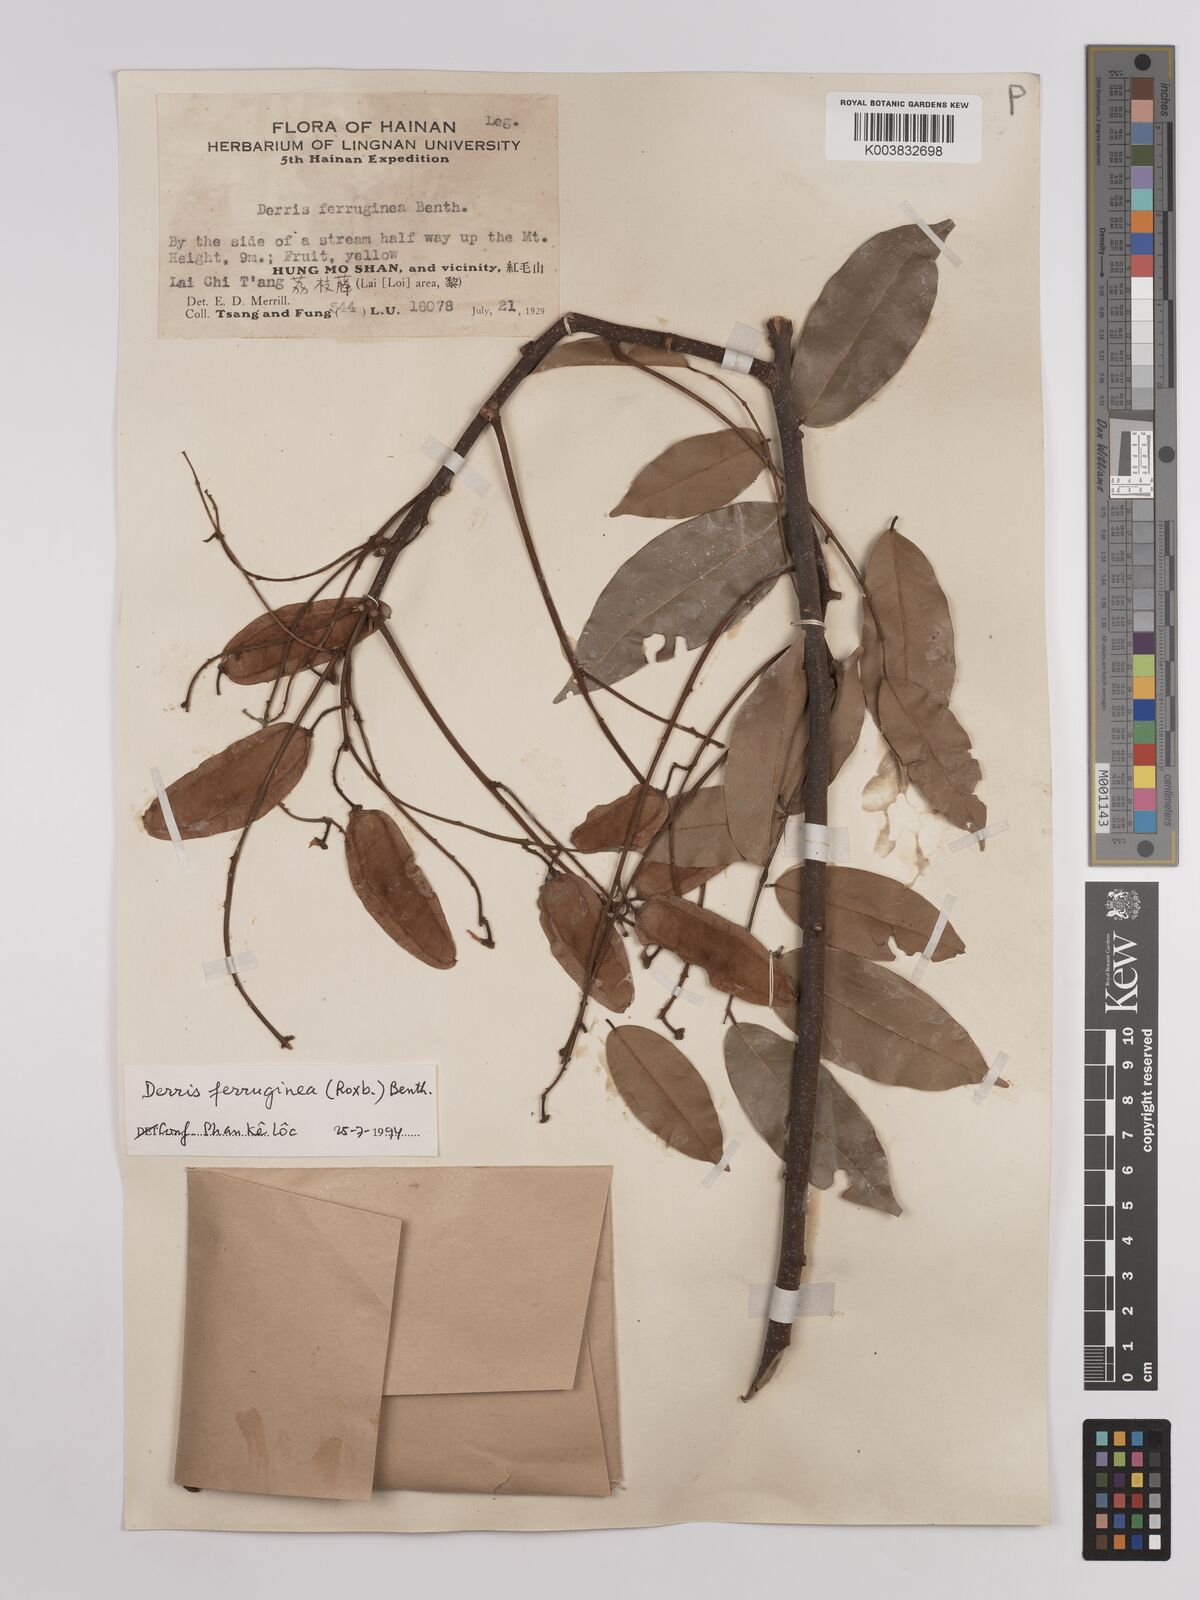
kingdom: Plantae
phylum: Tracheophyta
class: Magnoliopsida
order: Fabales
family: Fabaceae
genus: Derris
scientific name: Derris ferruginea
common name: Indian tubaroot
